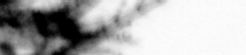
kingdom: Animalia
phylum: Annelida
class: Polychaeta
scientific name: Polychaeta
